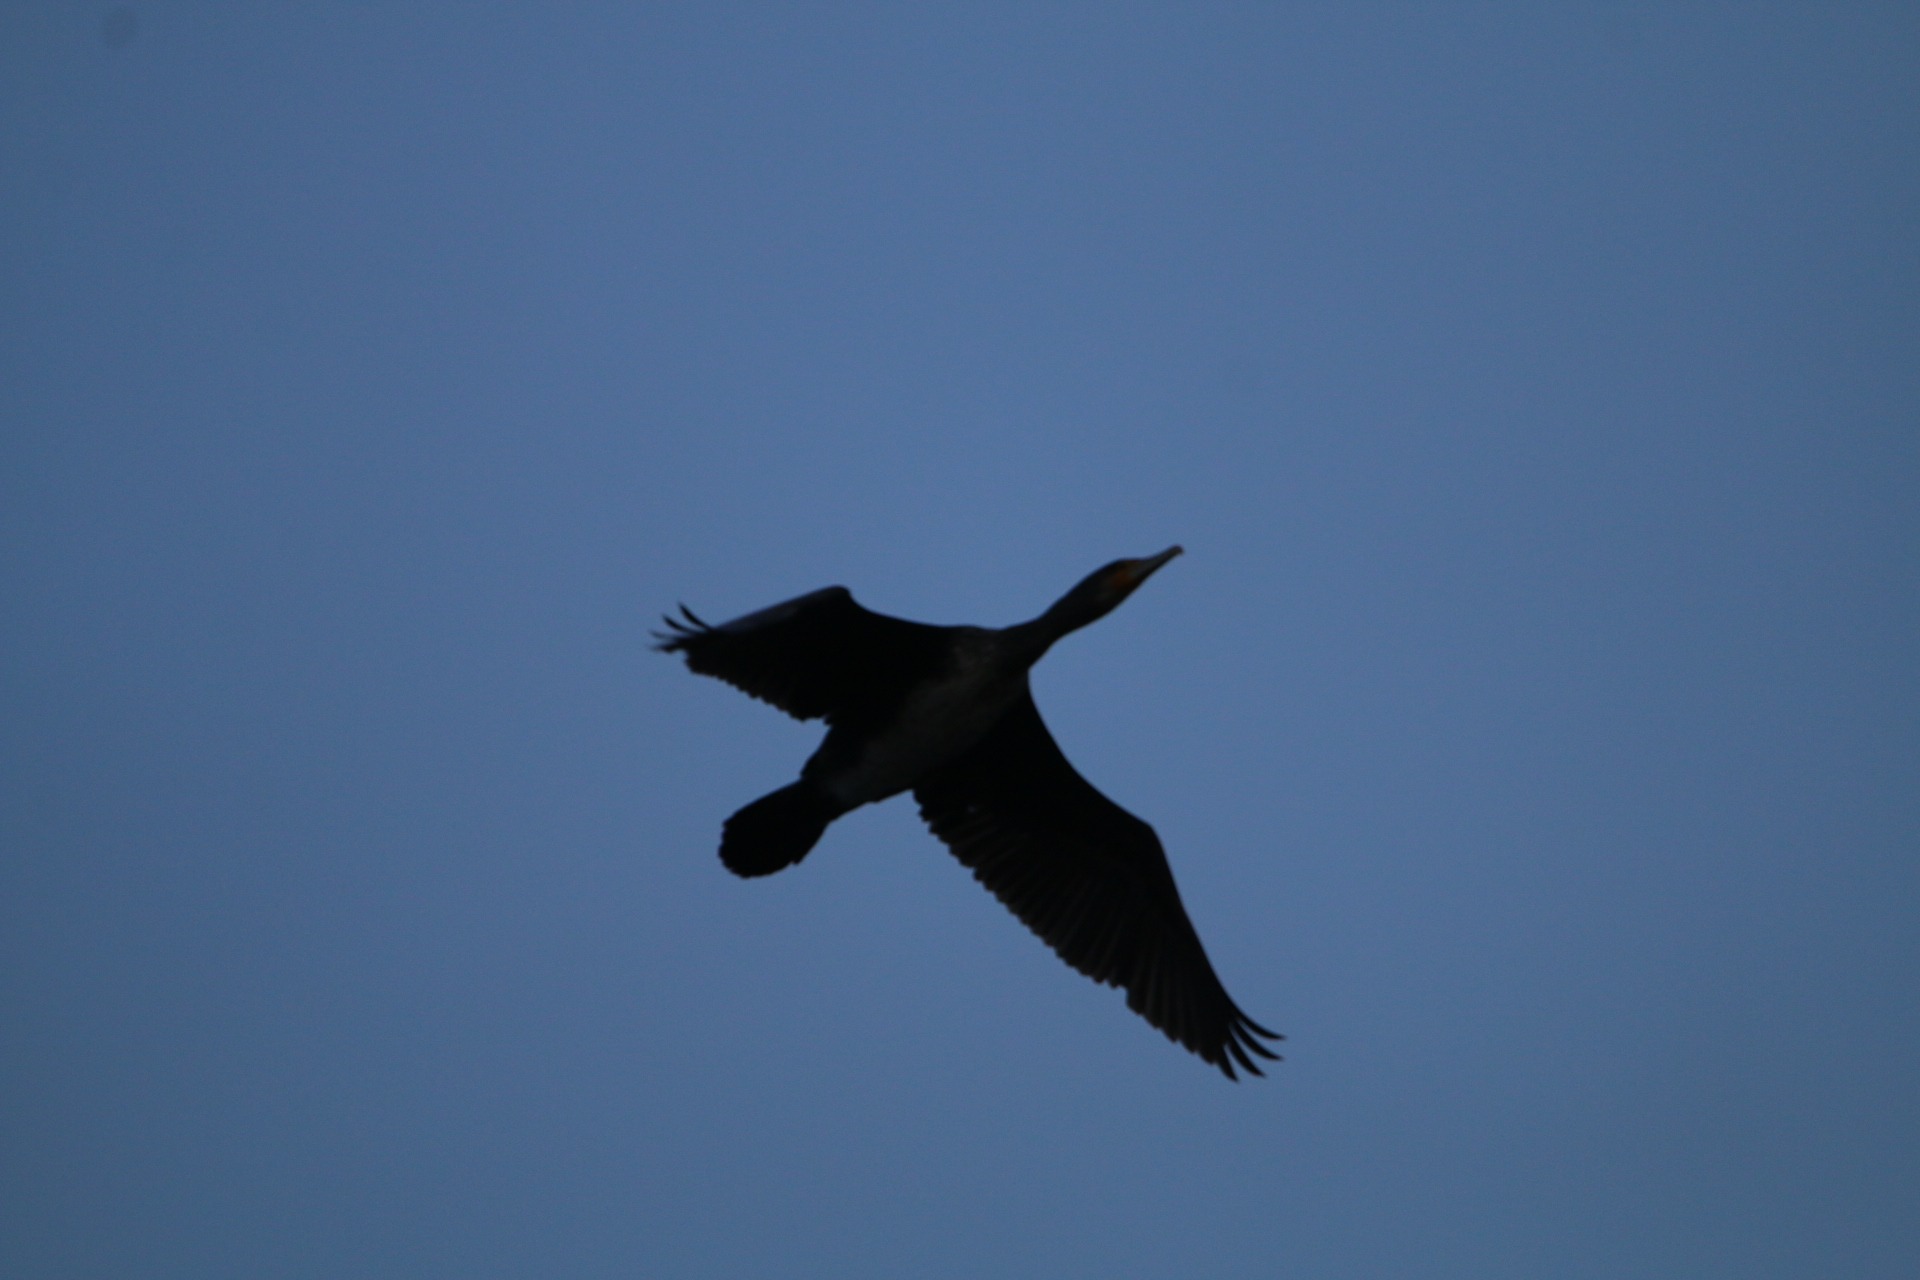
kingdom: Animalia
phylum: Chordata
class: Aves
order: Suliformes
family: Phalacrocoracidae
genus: Phalacrocorax
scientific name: Phalacrocorax carbo
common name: Skarv
